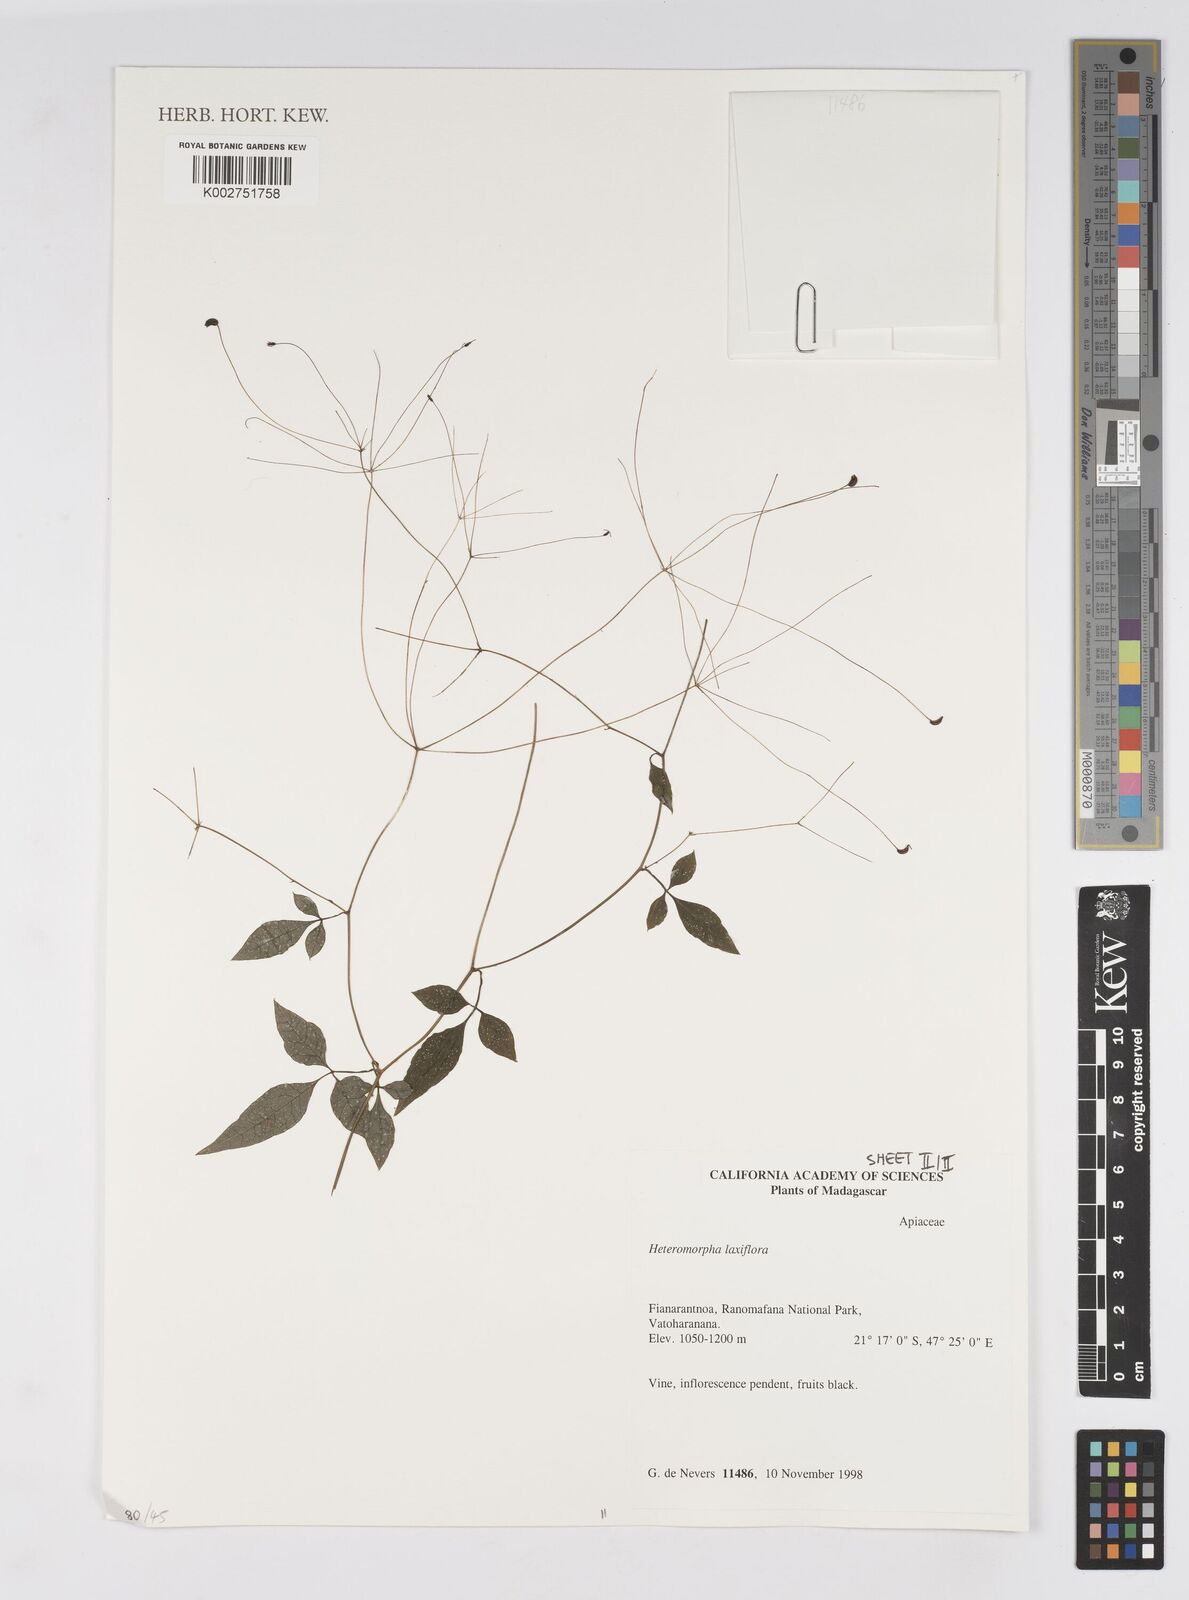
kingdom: Plantae
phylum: Tracheophyta
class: Magnoliopsida
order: Apiales
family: Apiaceae
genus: Pseudocarum
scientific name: Pseudocarum laxiflorum
